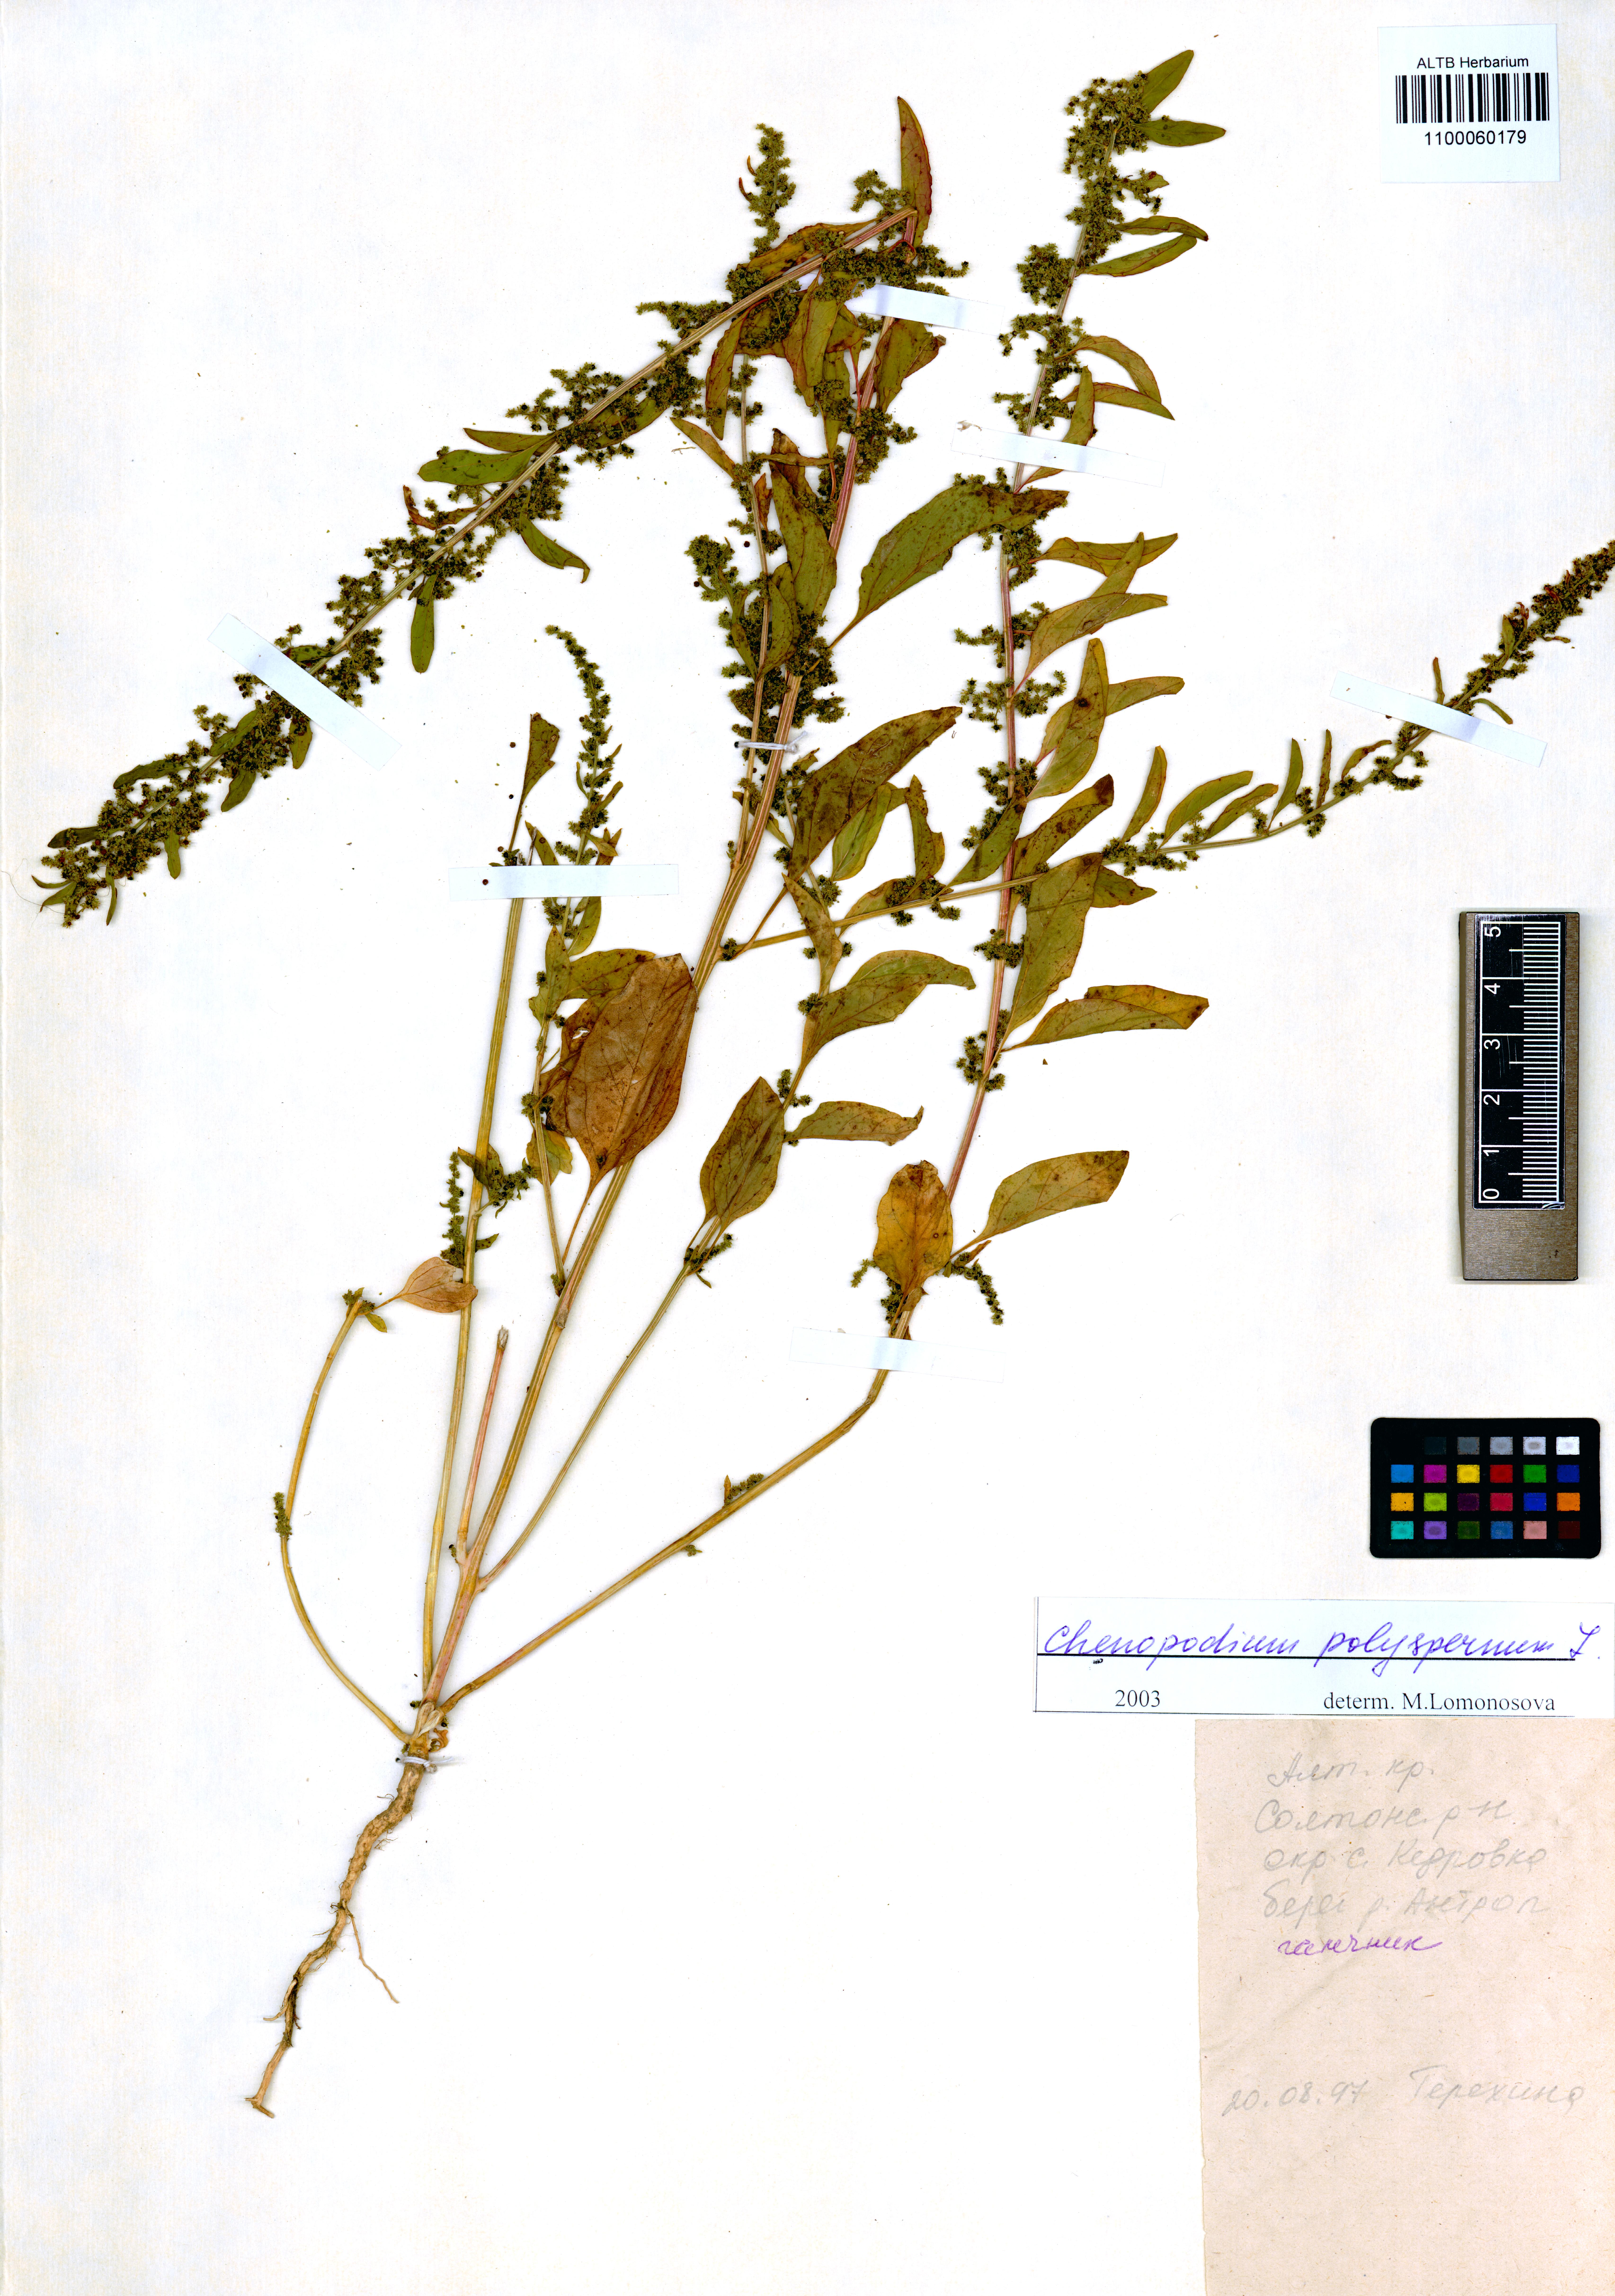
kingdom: Plantae
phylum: Tracheophyta
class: Magnoliopsida
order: Caryophyllales
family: Amaranthaceae
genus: Lipandra
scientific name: Lipandra polysperma
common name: Many-seed goosefoot
